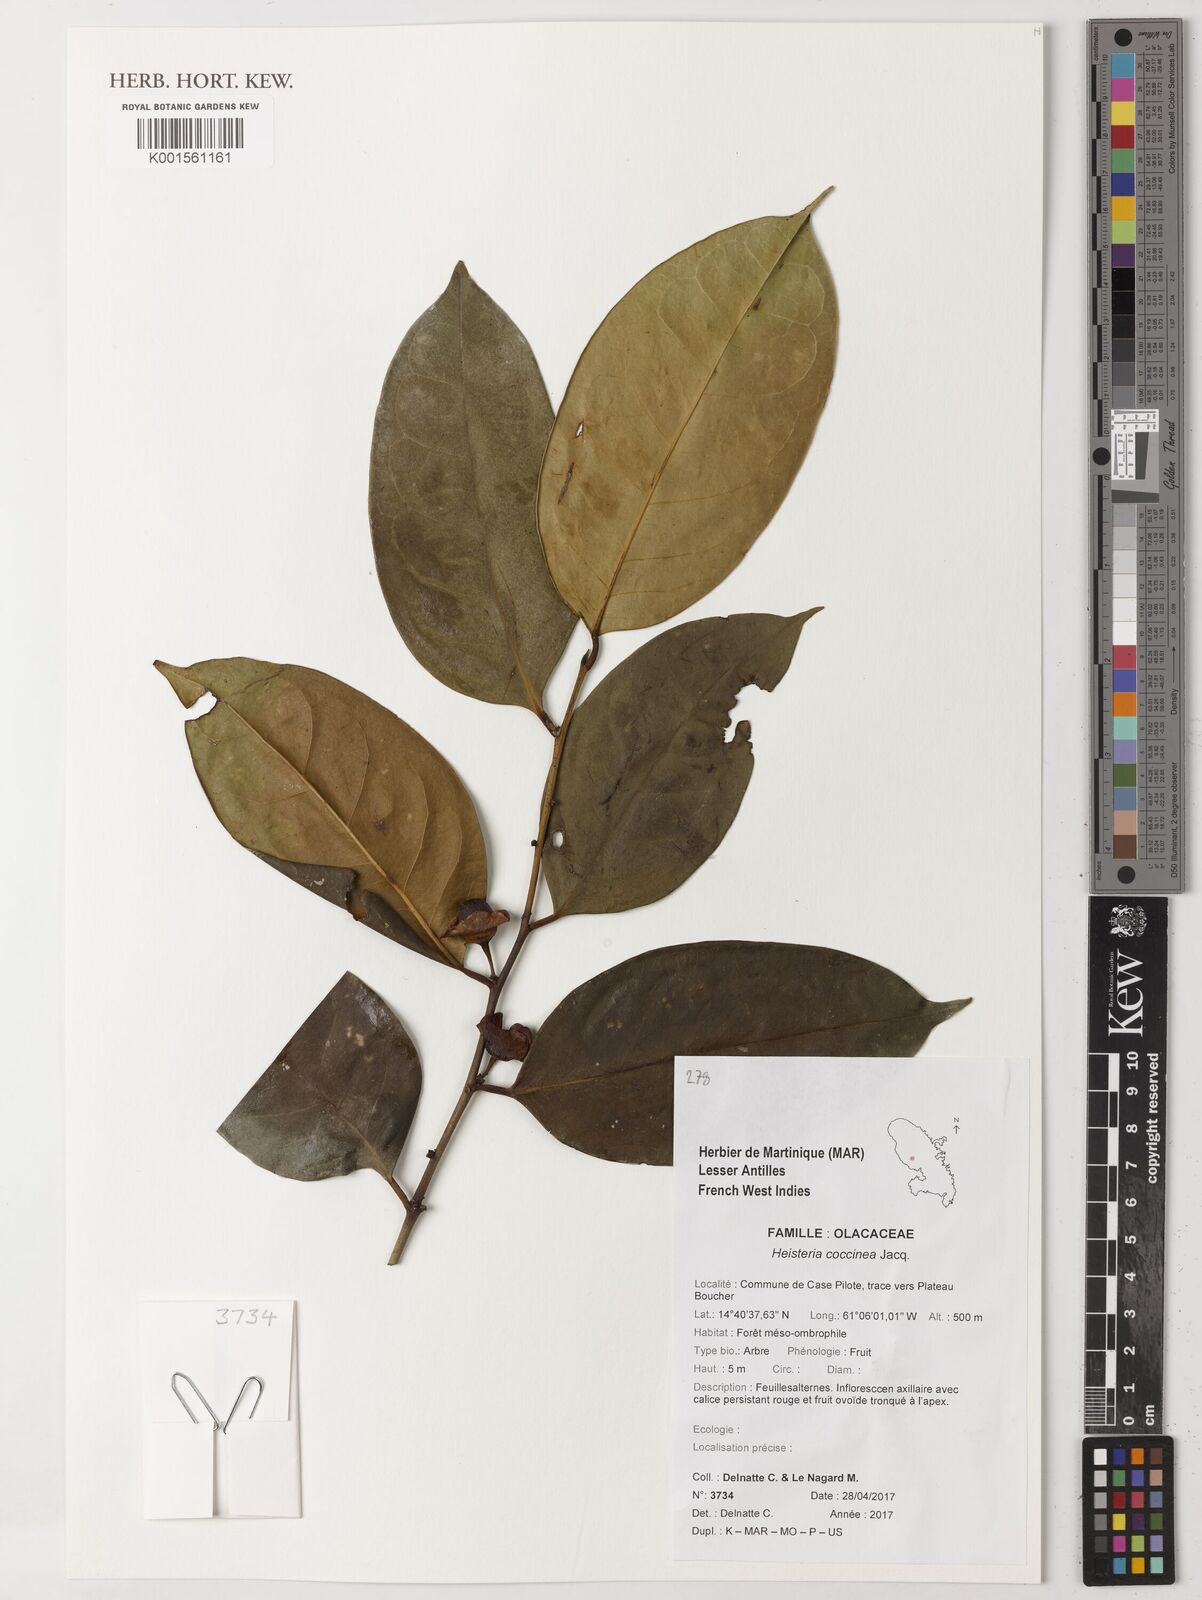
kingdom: Plantae
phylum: Tracheophyta
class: Magnoliopsida
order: Santalales
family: Erythropalaceae
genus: Heisteria
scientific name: Heisteria coccinea
